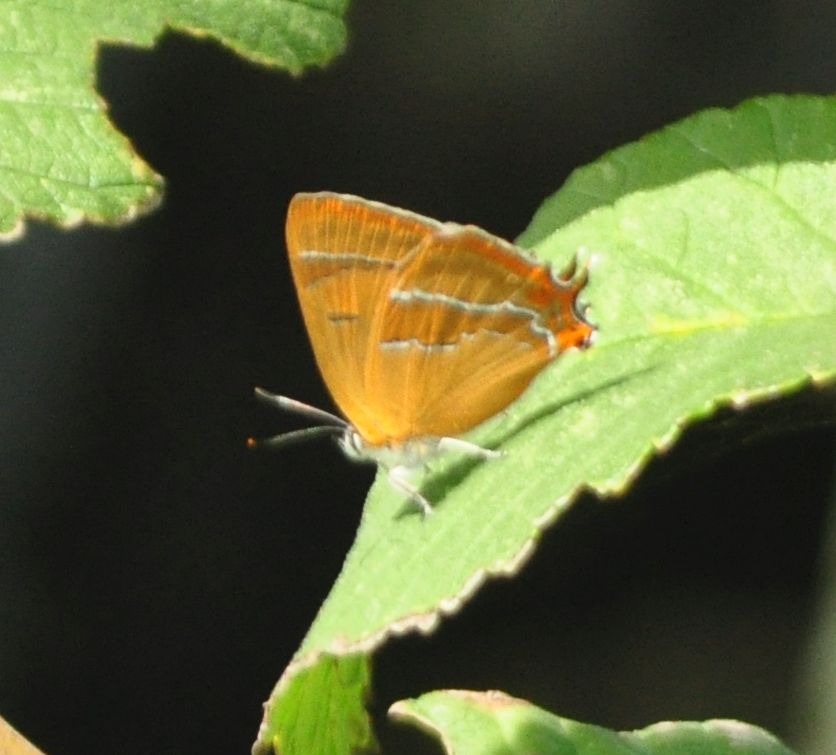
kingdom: Animalia
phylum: Arthropoda
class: Insecta
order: Lepidoptera
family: Lycaenidae
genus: Thecla
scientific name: Thecla betulae
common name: Guldhale
